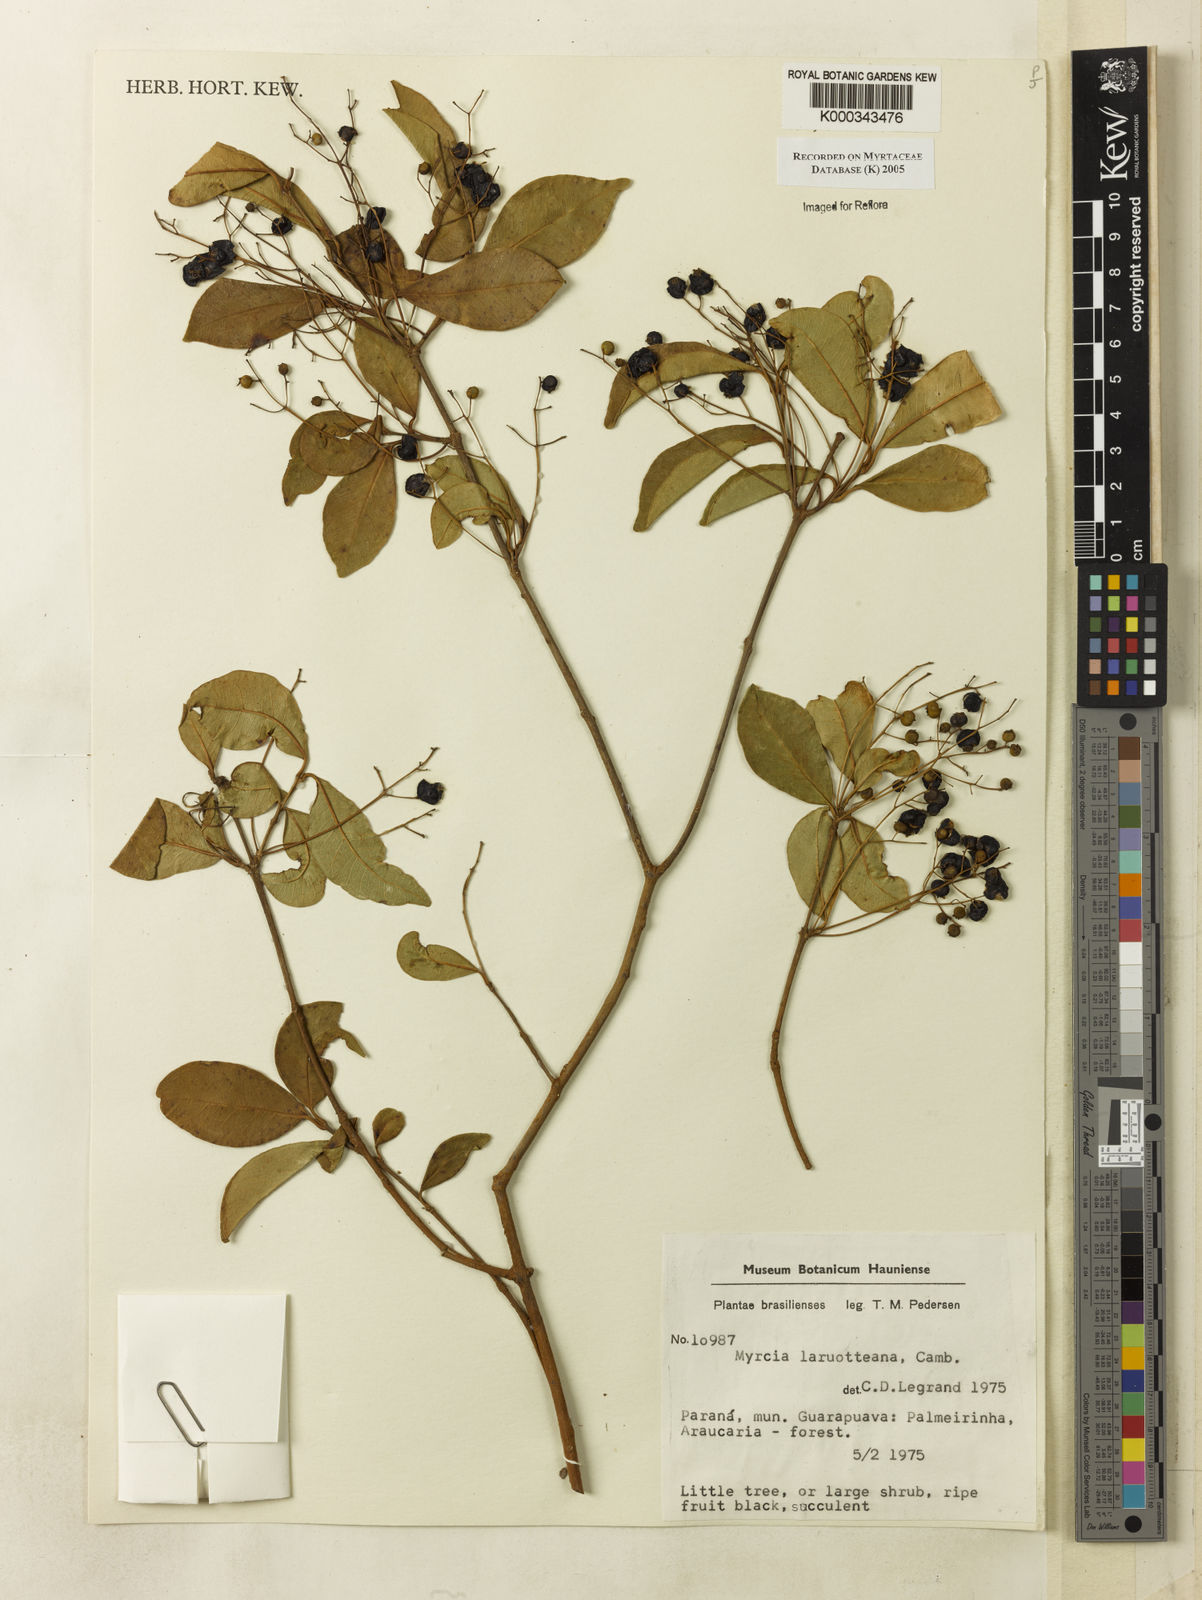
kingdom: Plantae
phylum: Tracheophyta
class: Magnoliopsida
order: Myrtales
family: Myrtaceae
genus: Myrcia
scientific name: Myrcia laruotteana
